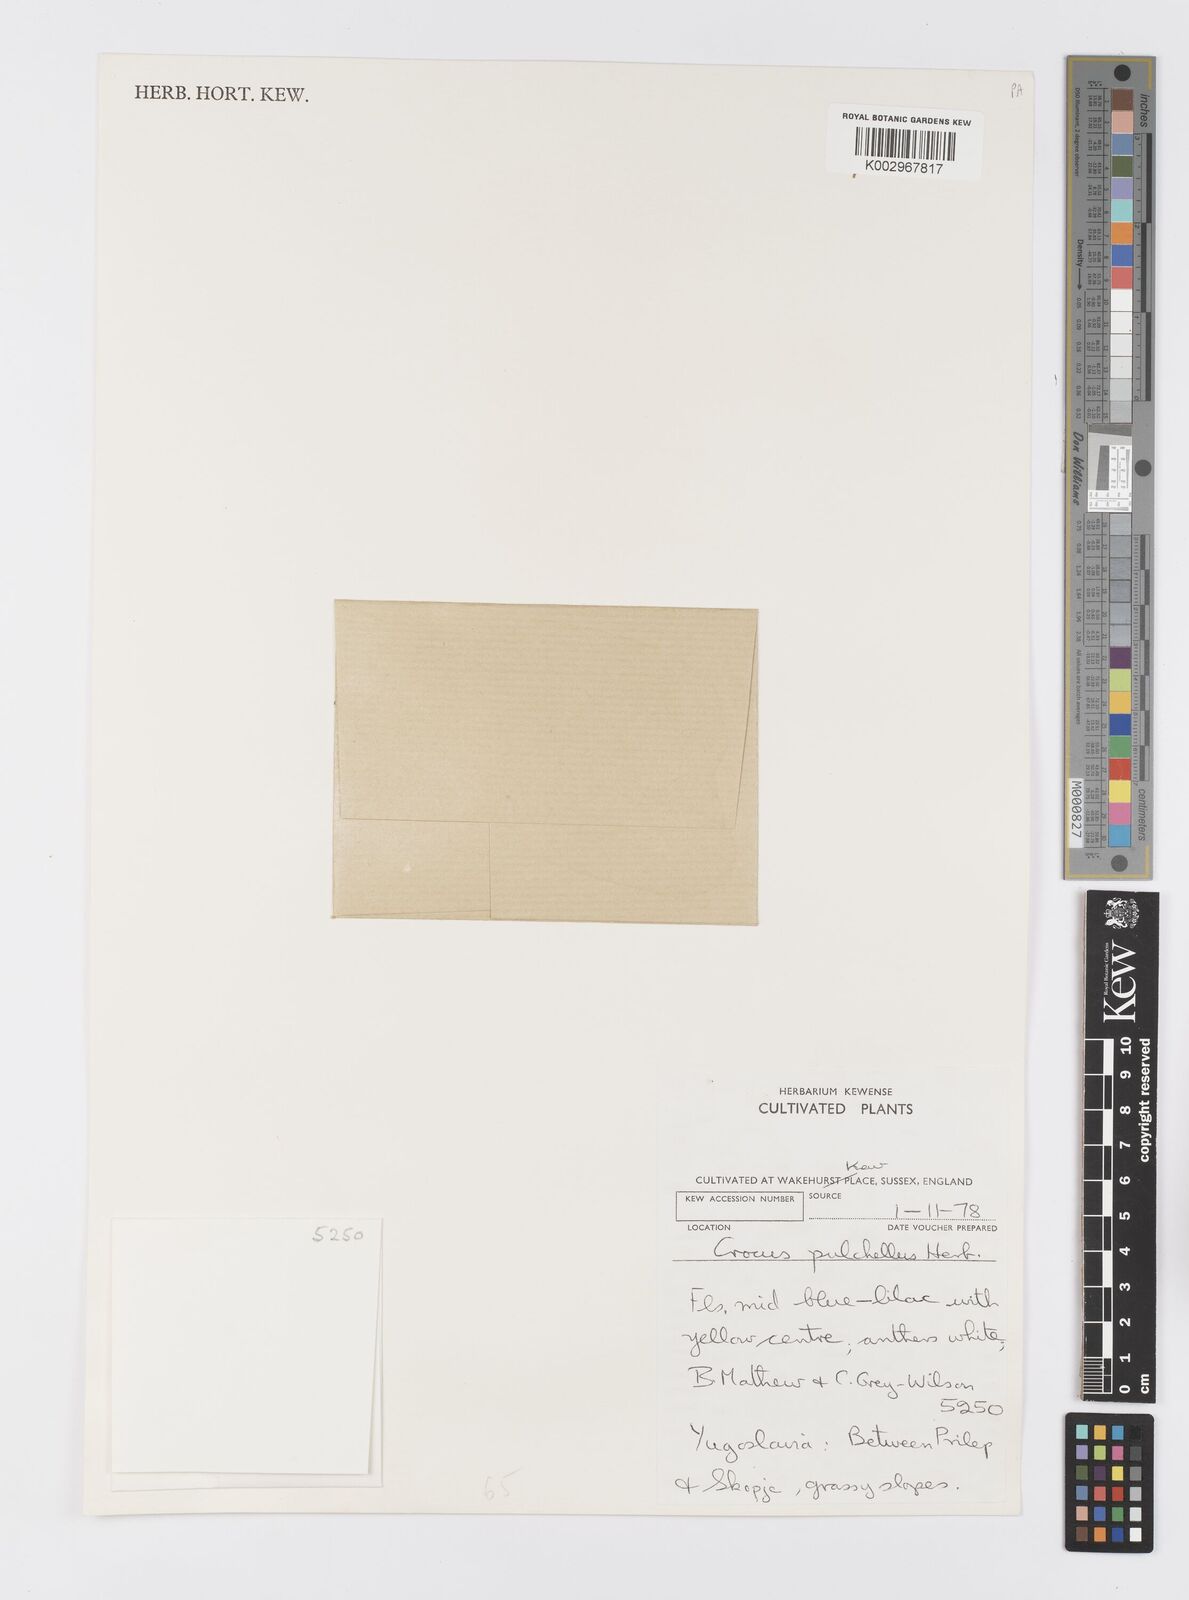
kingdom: Plantae
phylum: Tracheophyta
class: Liliopsida
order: Asparagales
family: Iridaceae
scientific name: Iridaceae
